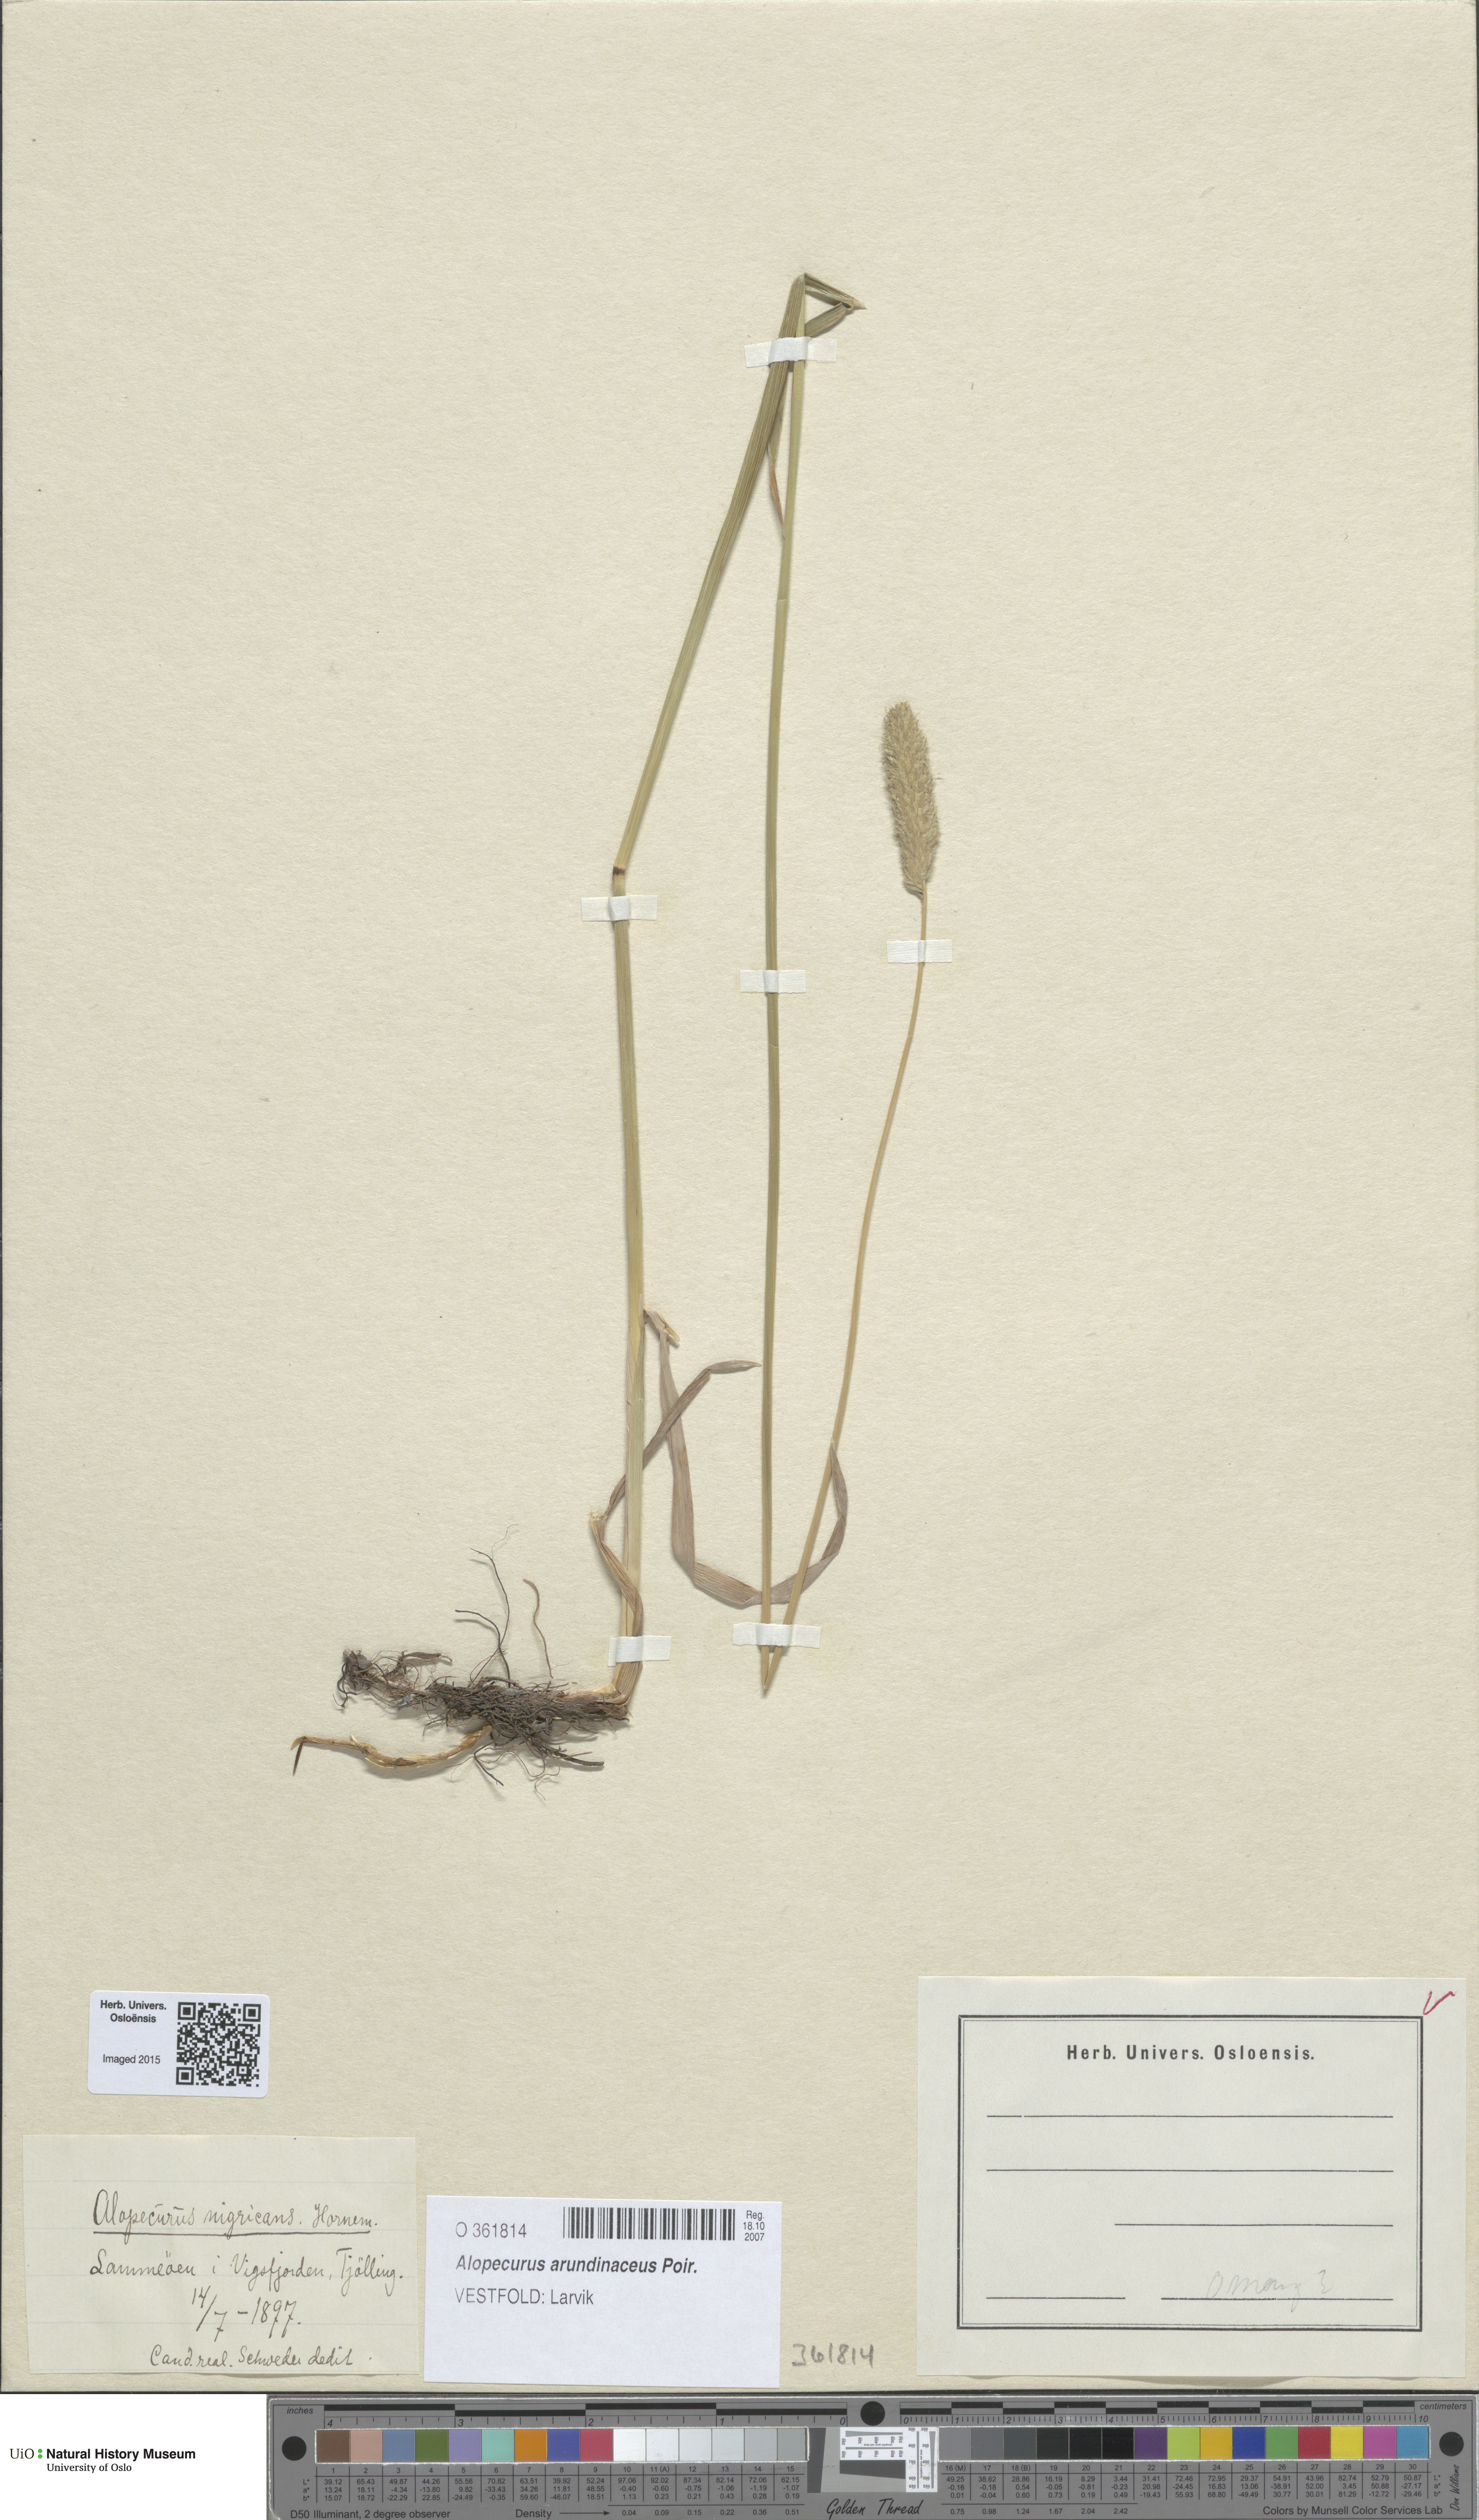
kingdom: Plantae
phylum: Tracheophyta
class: Liliopsida
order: Poales
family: Poaceae
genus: Alopecurus
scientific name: Alopecurus arundinaceus
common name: Creeping meadow foxtail
